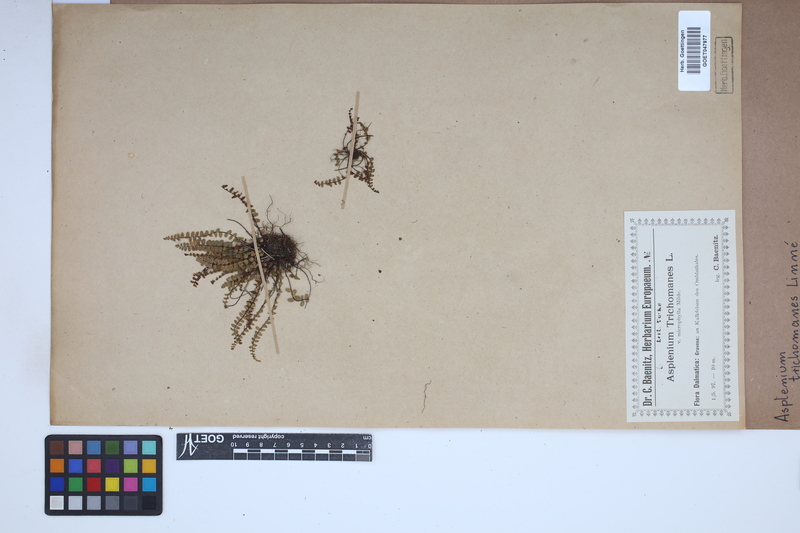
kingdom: Plantae
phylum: Tracheophyta
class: Polypodiopsida
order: Polypodiales
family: Aspleniaceae
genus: Asplenium
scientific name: Asplenium trichomanes
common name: Maidenhair spleenwort
